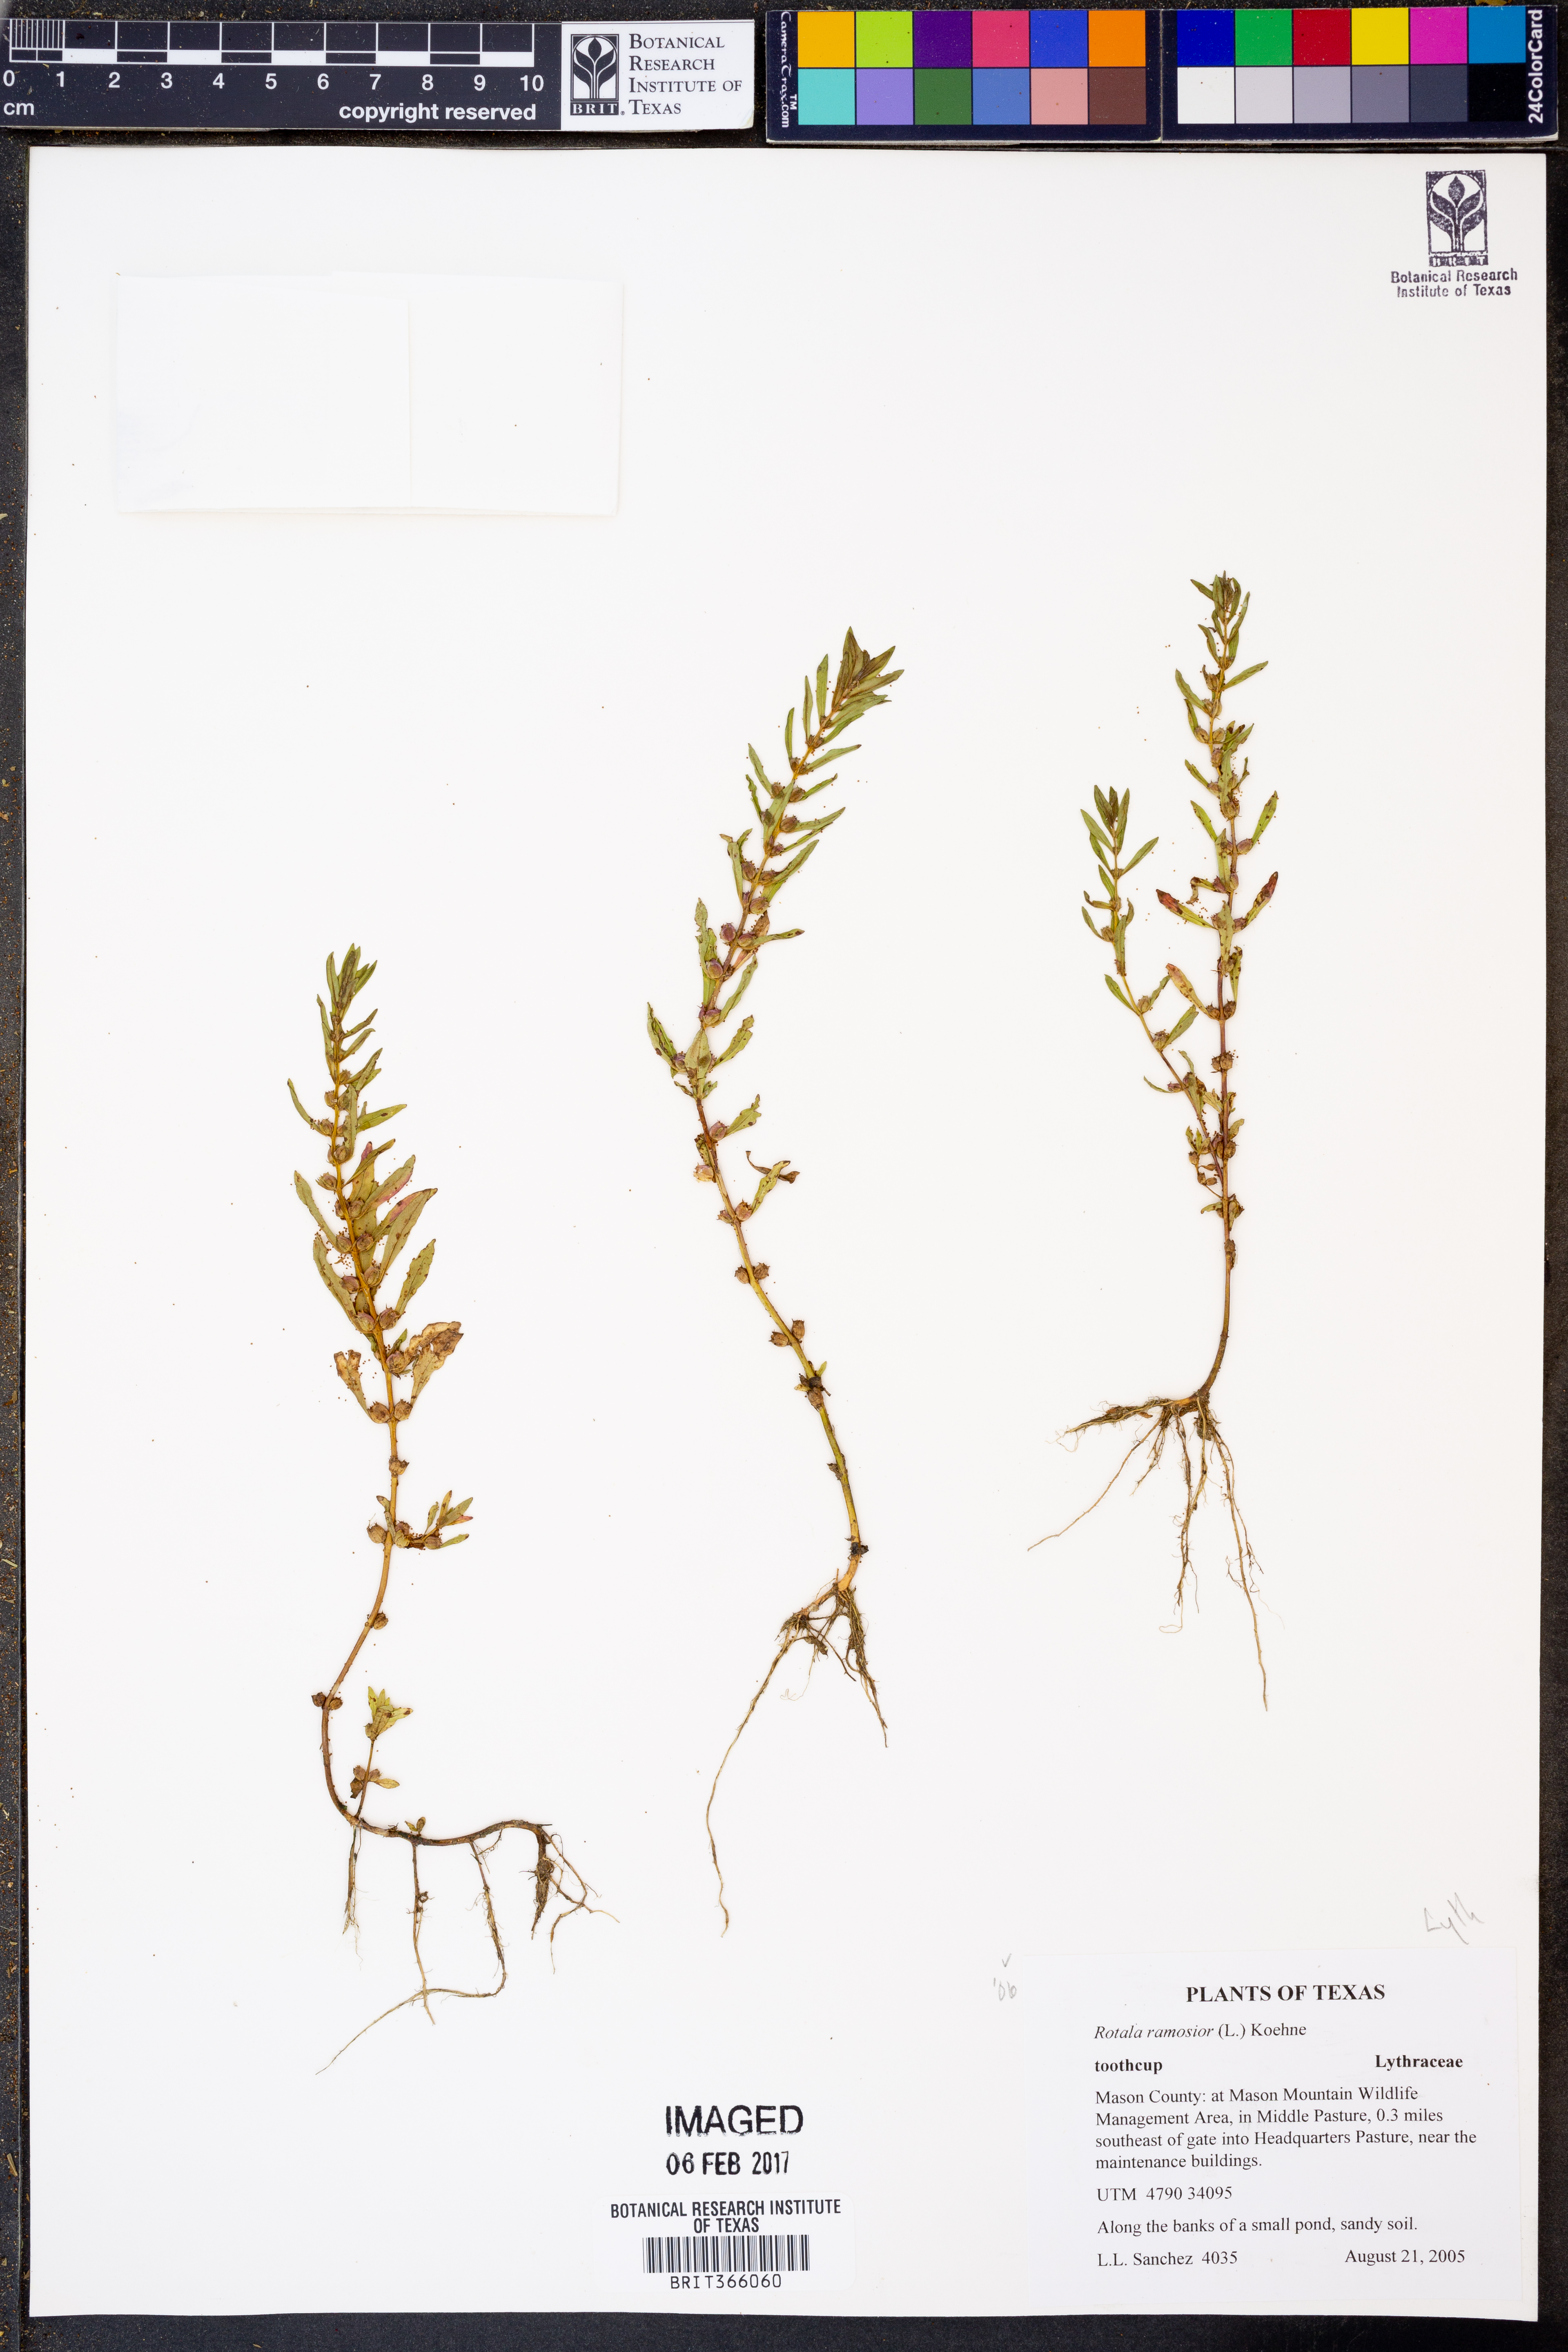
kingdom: Plantae
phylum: Tracheophyta
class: Magnoliopsida
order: Myrtales
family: Lythraceae
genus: Rotala
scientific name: Rotala ramosior
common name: Lowland rotala
